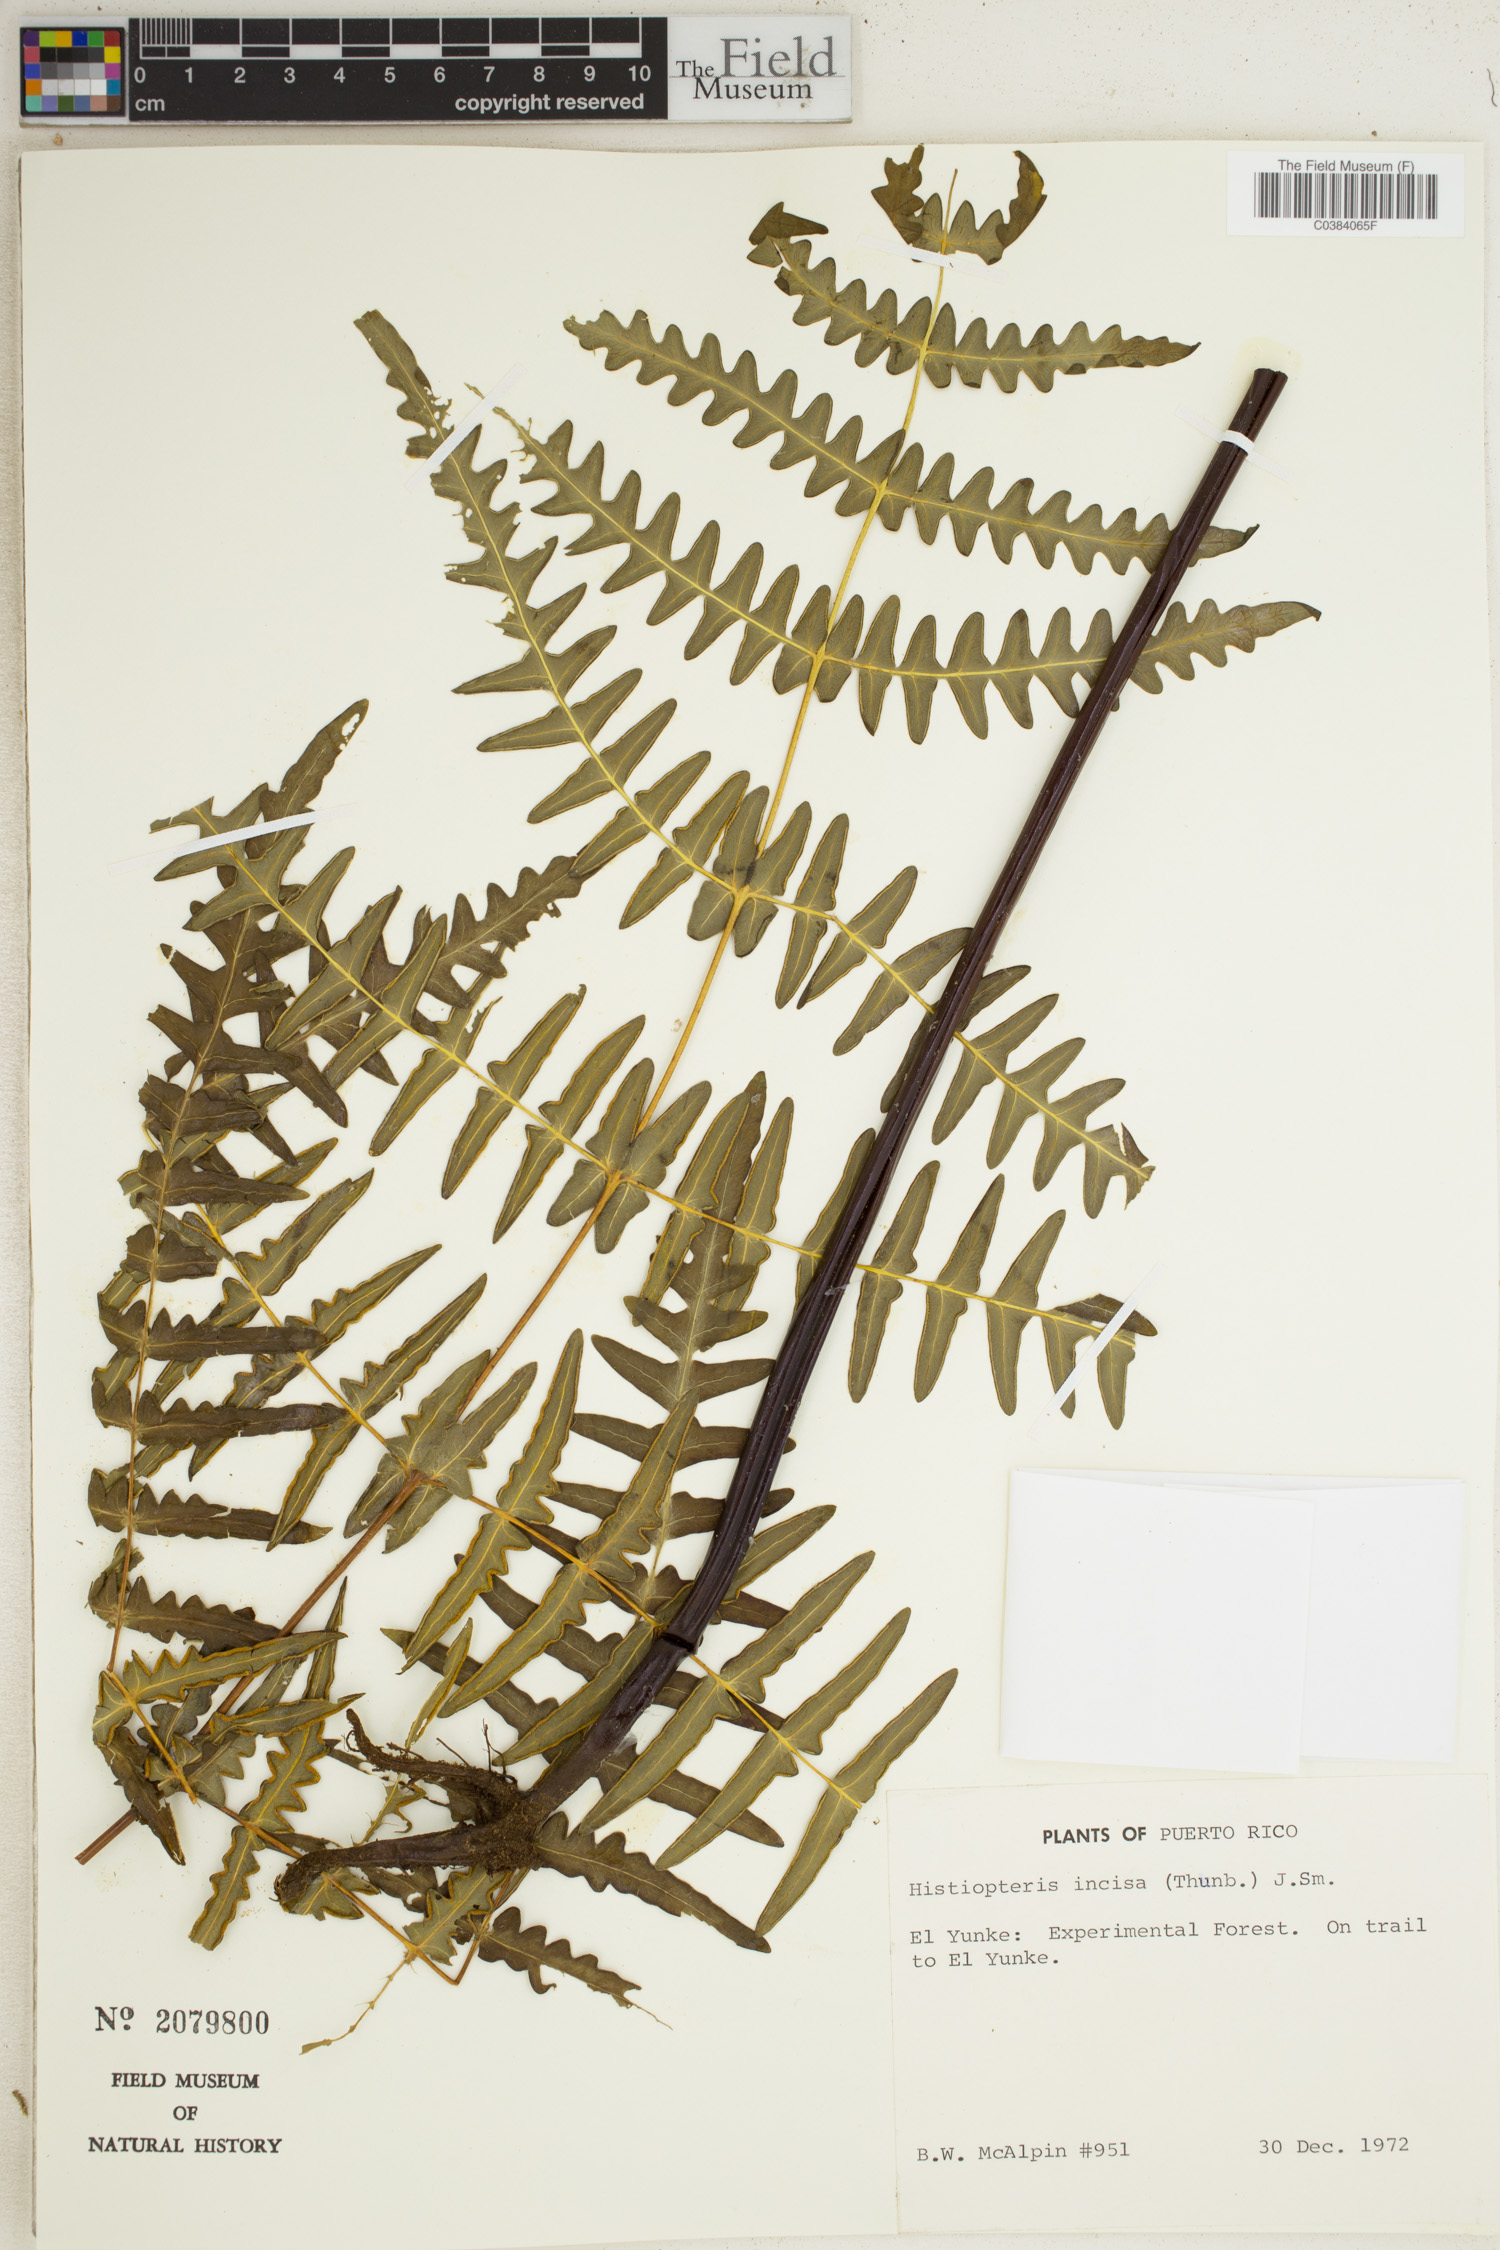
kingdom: Plantae
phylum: Tracheophyta
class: Polypodiopsida
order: Polypodiales
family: Dennstaedtiaceae
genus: Histiopteris
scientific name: Histiopteris incisa
